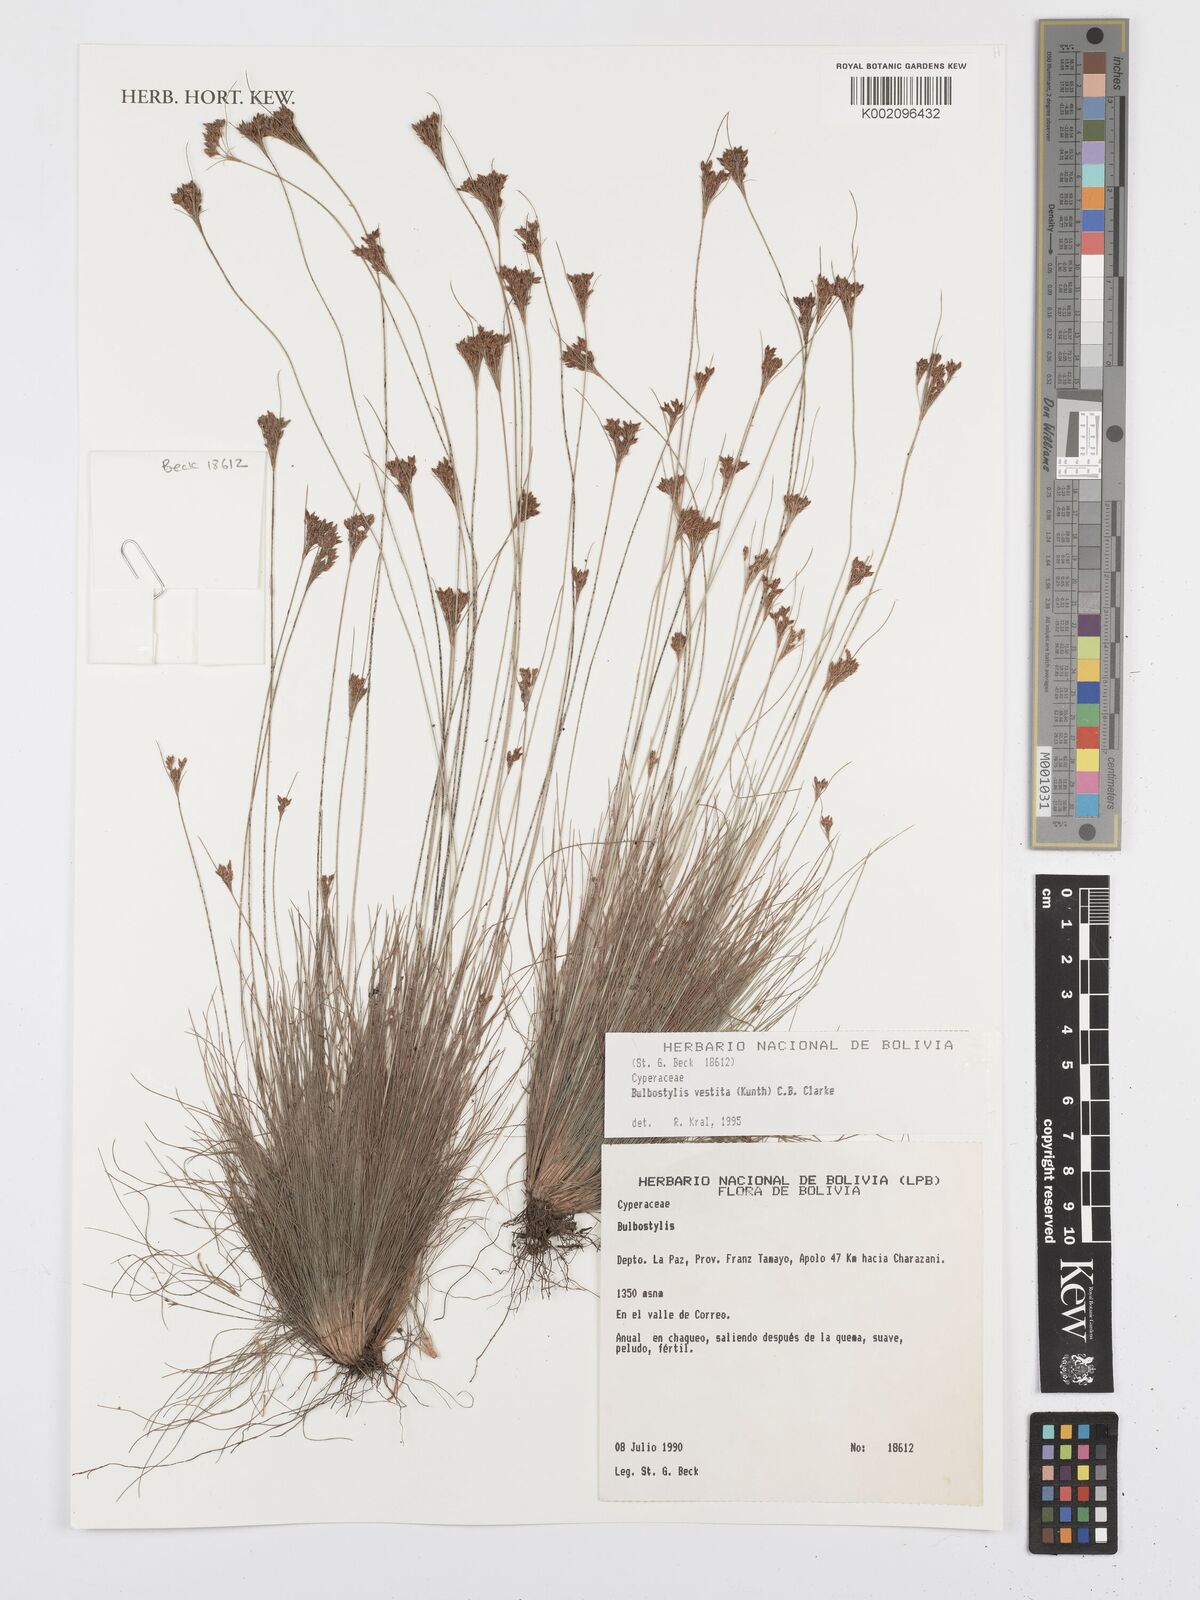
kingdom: Plantae
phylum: Tracheophyta
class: Liliopsida
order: Poales
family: Cyperaceae
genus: Bulbostylis
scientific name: Bulbostylis vestita
